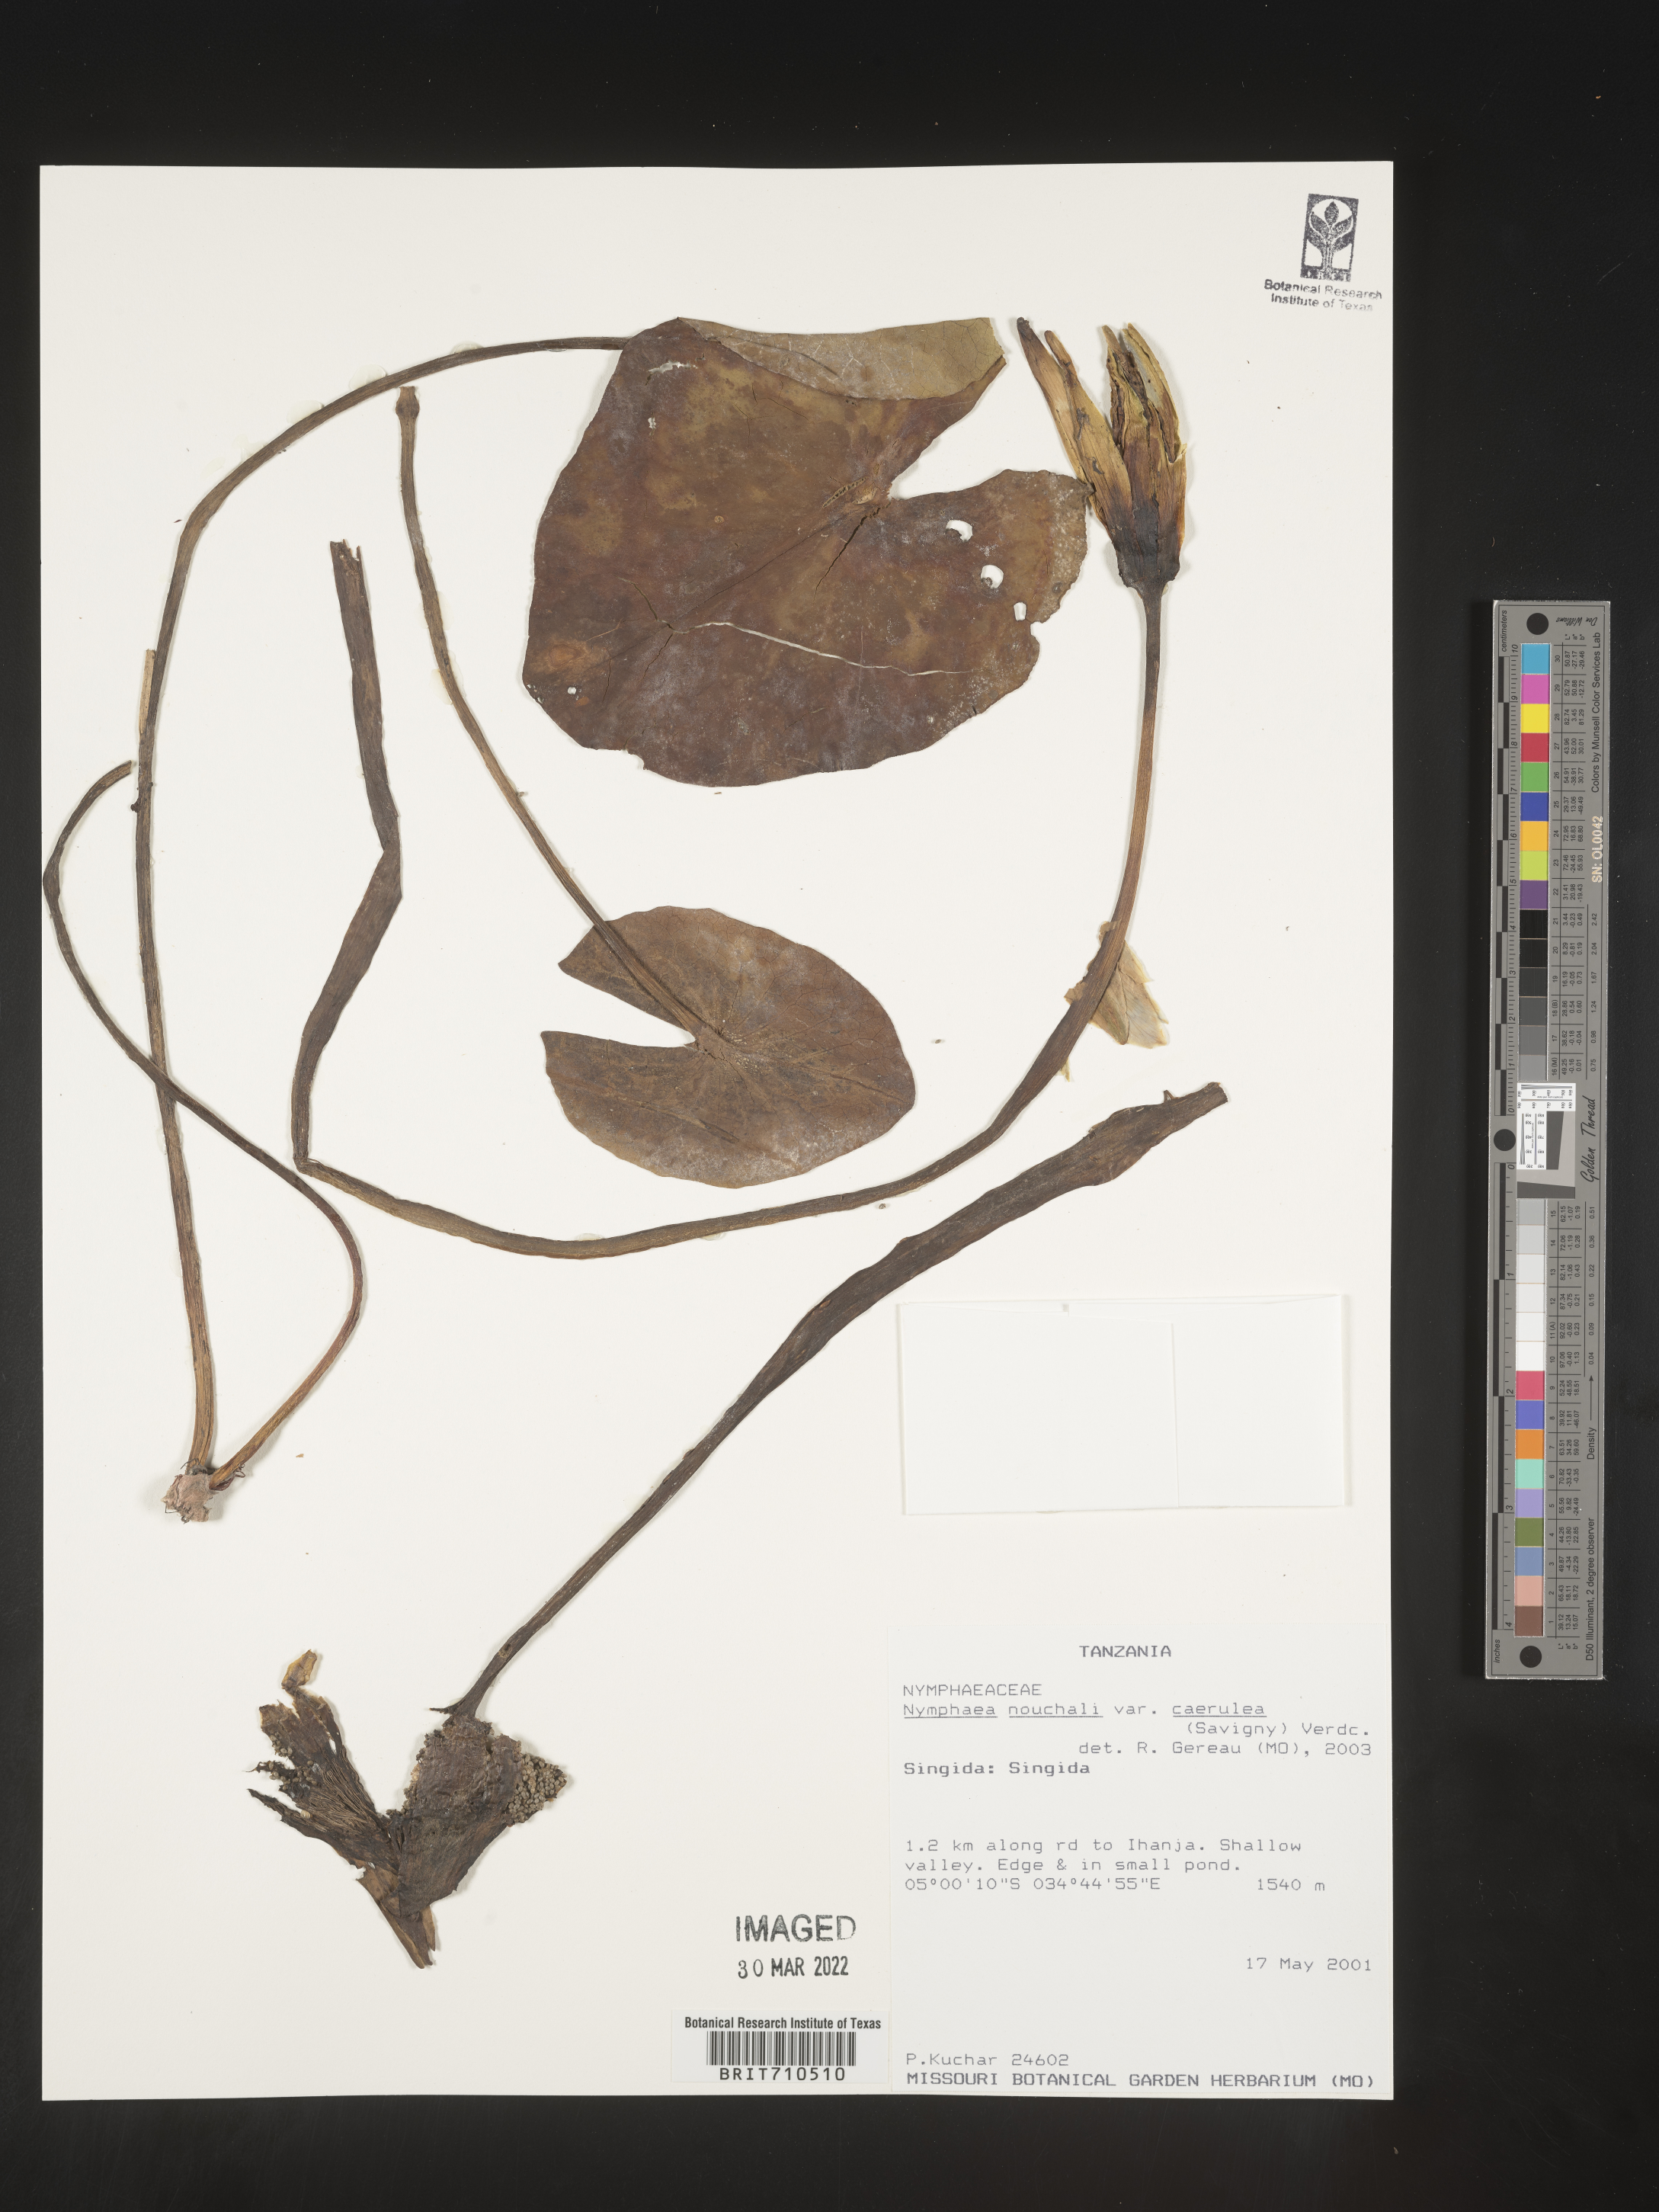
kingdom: Plantae
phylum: Tracheophyta
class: Magnoliopsida
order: Nymphaeales
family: Nymphaeaceae
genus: Nymphaea
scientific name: Nymphaea
